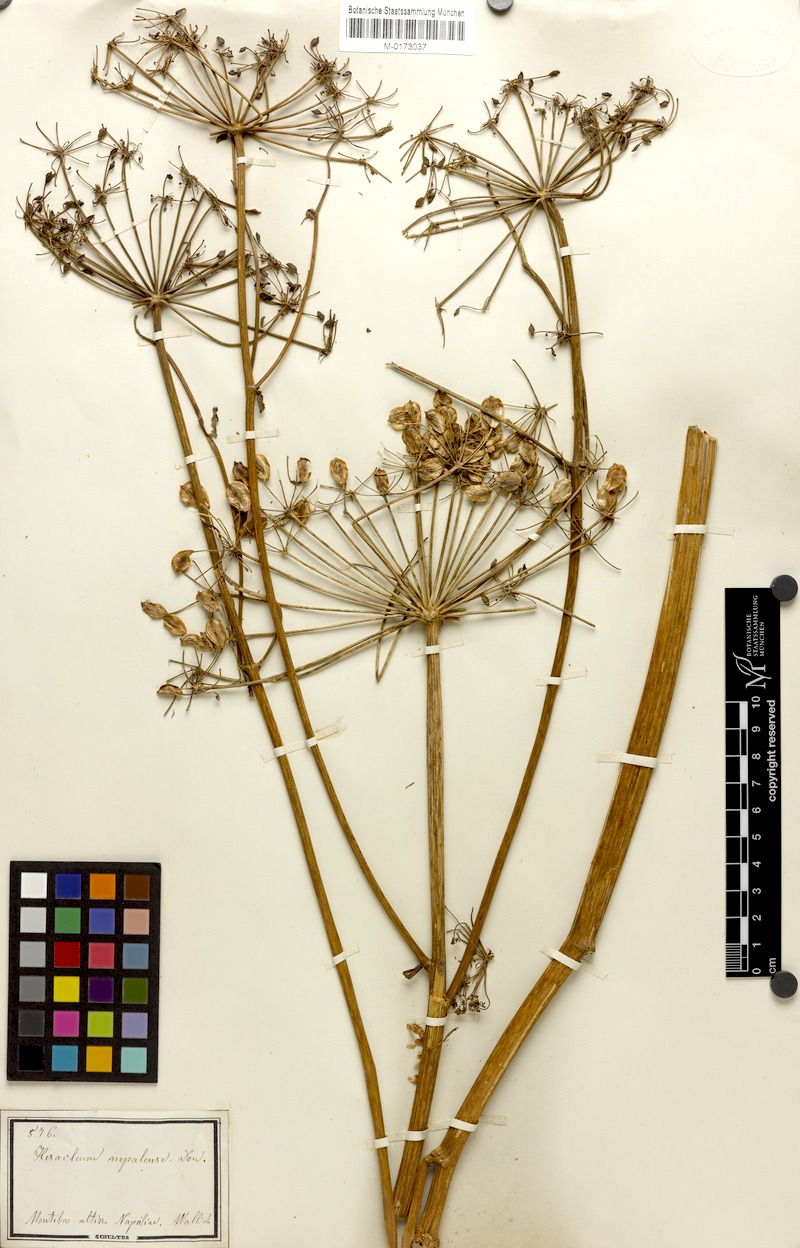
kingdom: Plantae
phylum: Tracheophyta
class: Magnoliopsida
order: Apiales
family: Apiaceae
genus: Tetrataenium
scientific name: Tetrataenium nepalense
